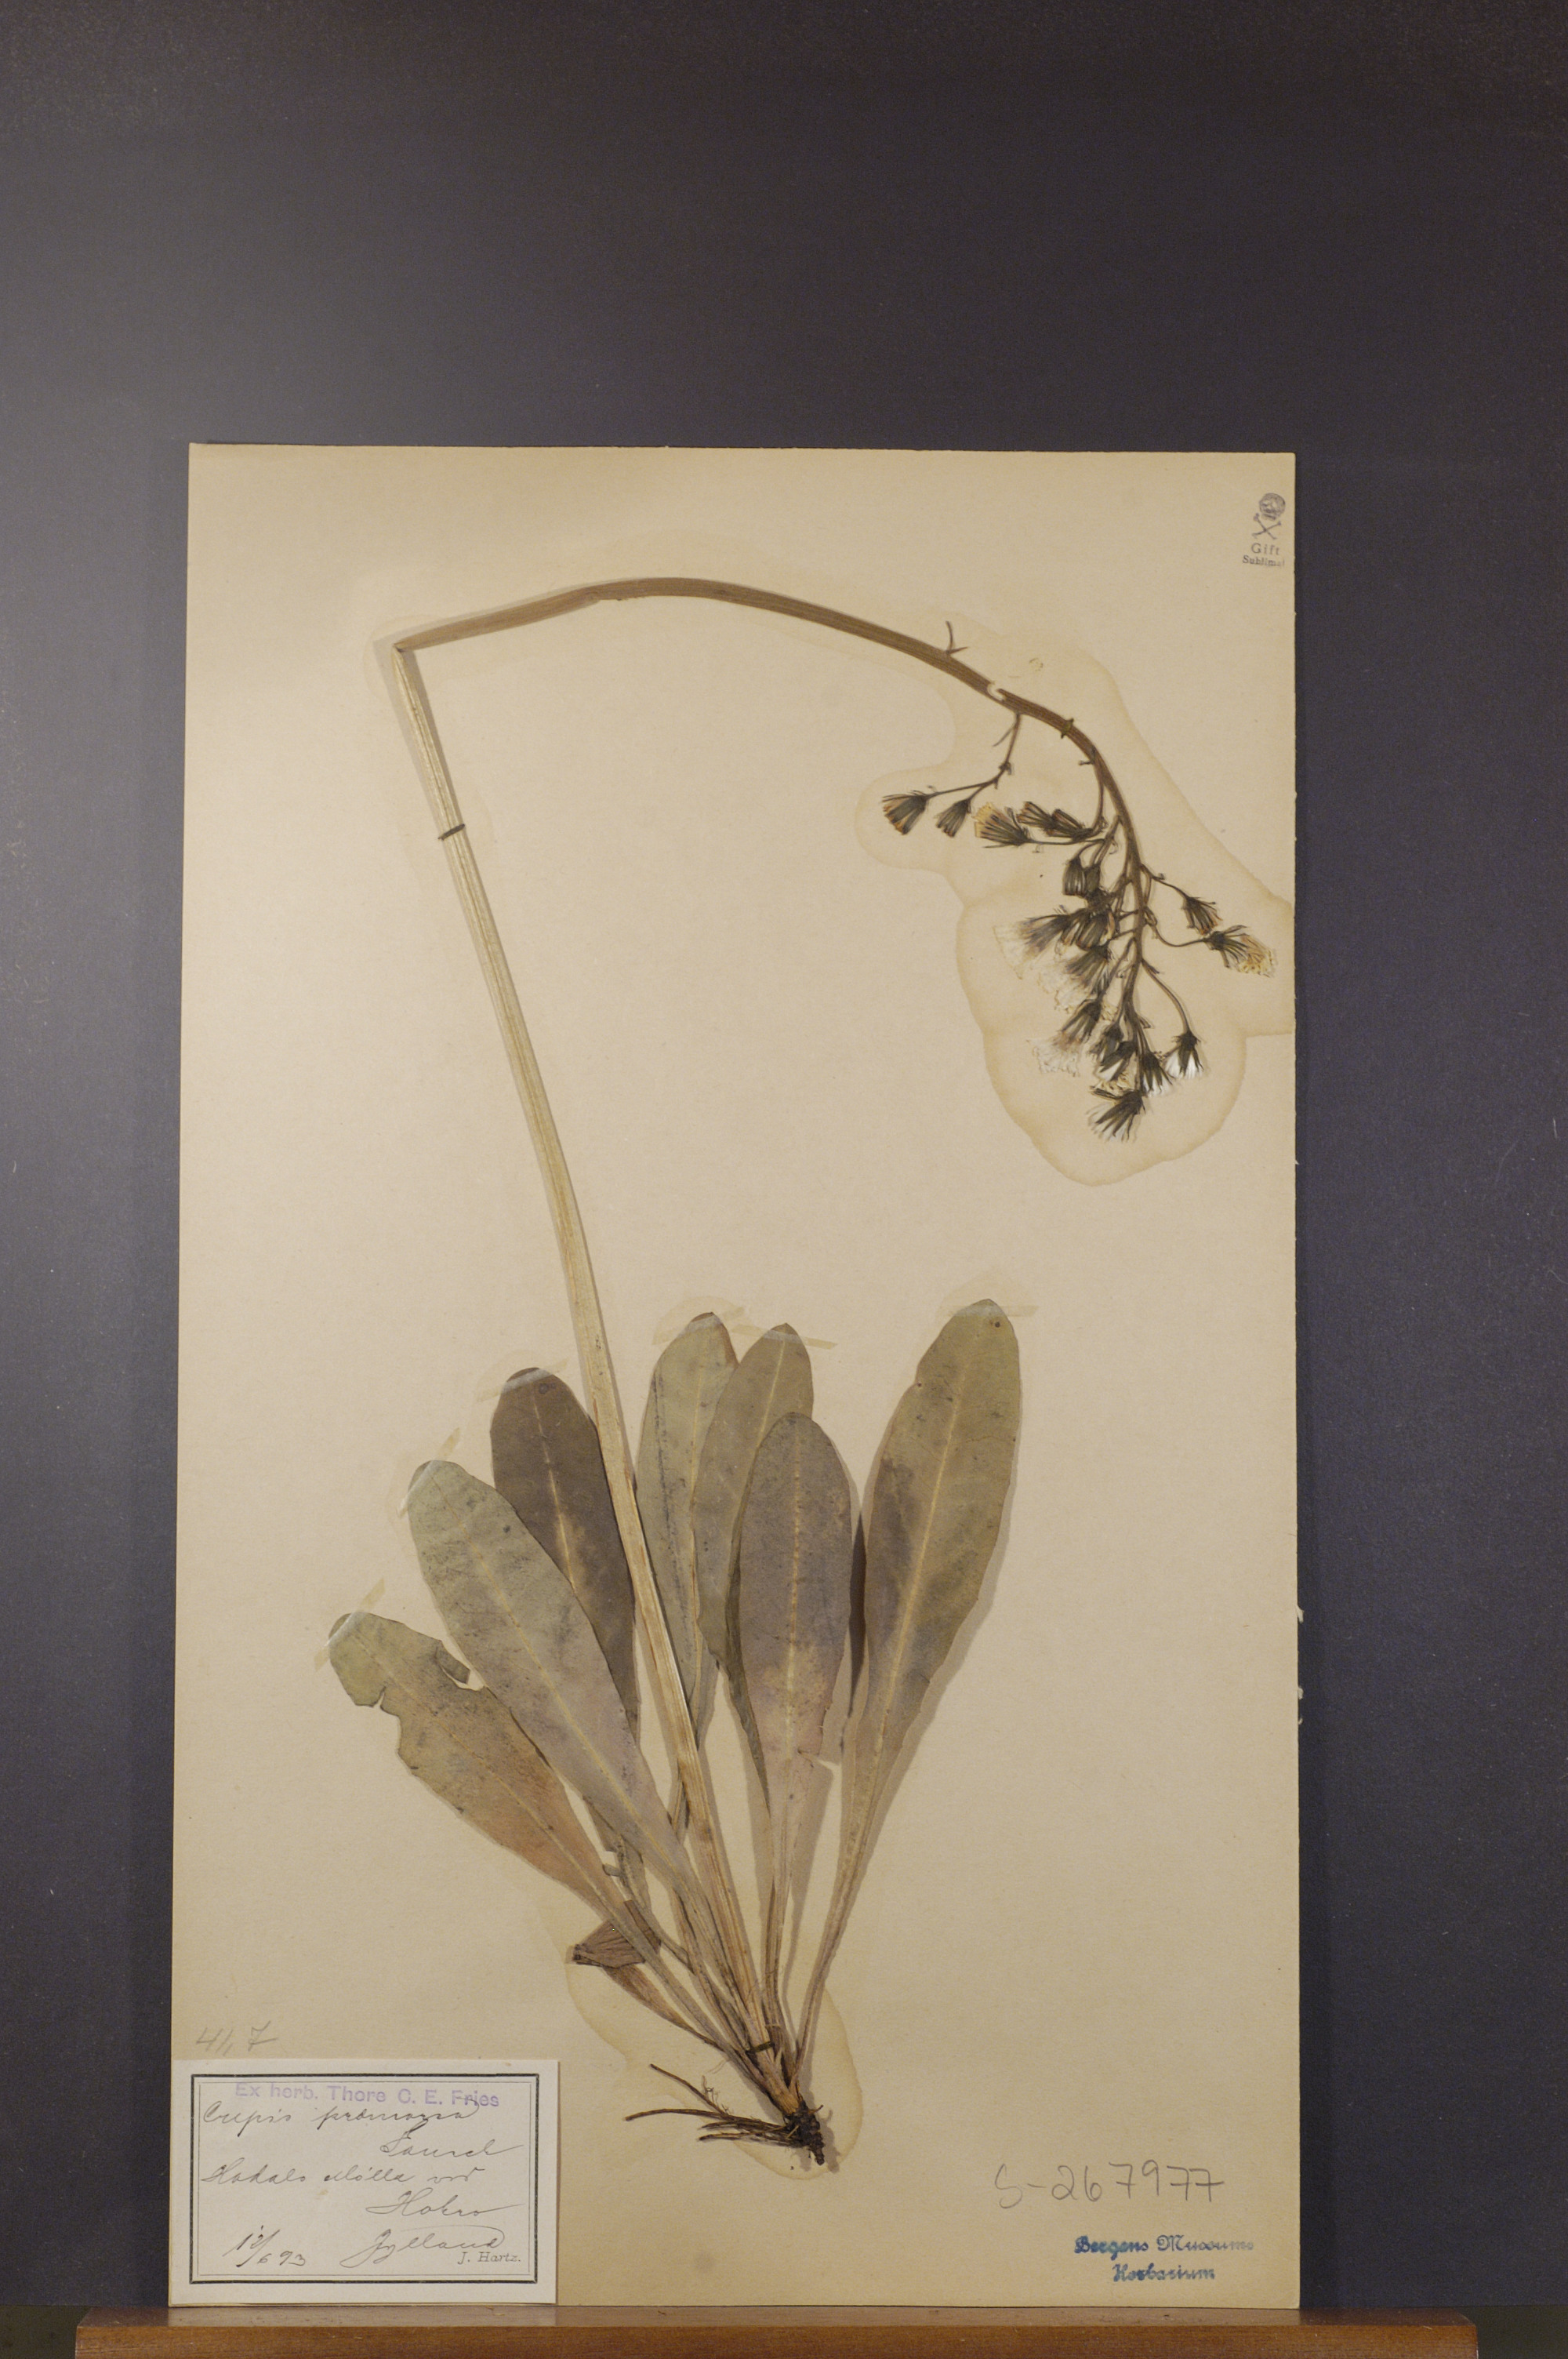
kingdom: Plantae
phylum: Tracheophyta
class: Magnoliopsida
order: Asterales
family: Asteraceae
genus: Crepis
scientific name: Crepis praemorsa
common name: Leafless hawk's-beard
